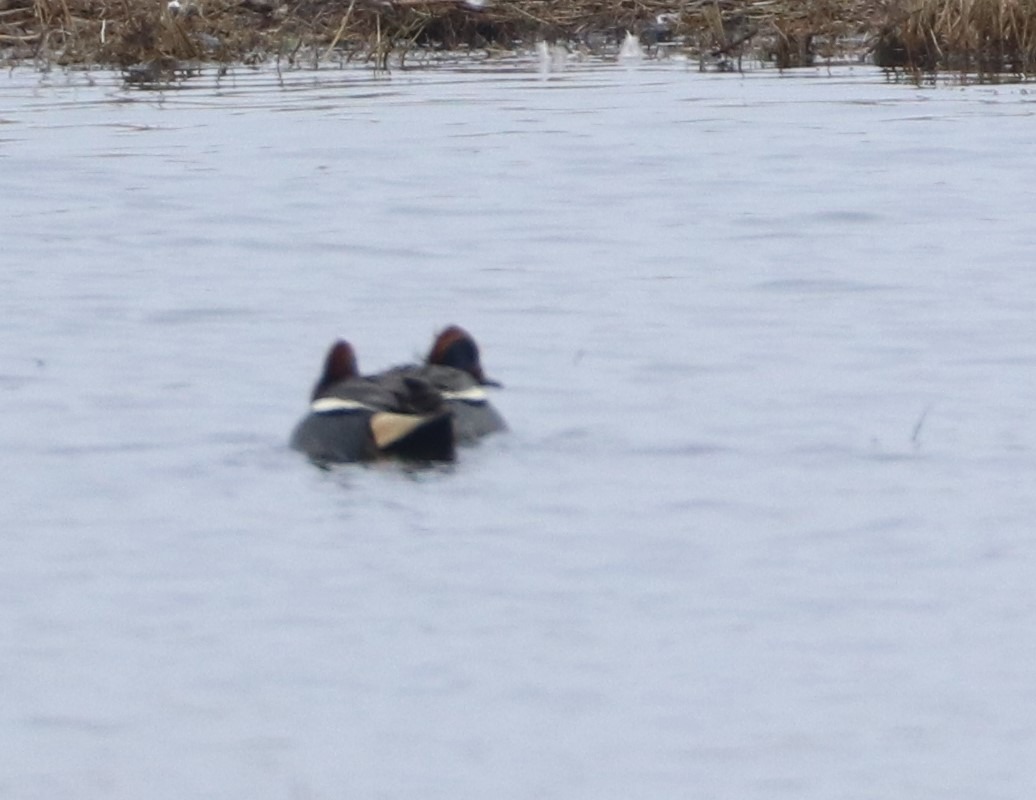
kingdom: Animalia
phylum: Chordata
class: Aves
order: Anseriformes
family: Anatidae
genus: Anas
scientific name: Anas crecca
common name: Krikand
